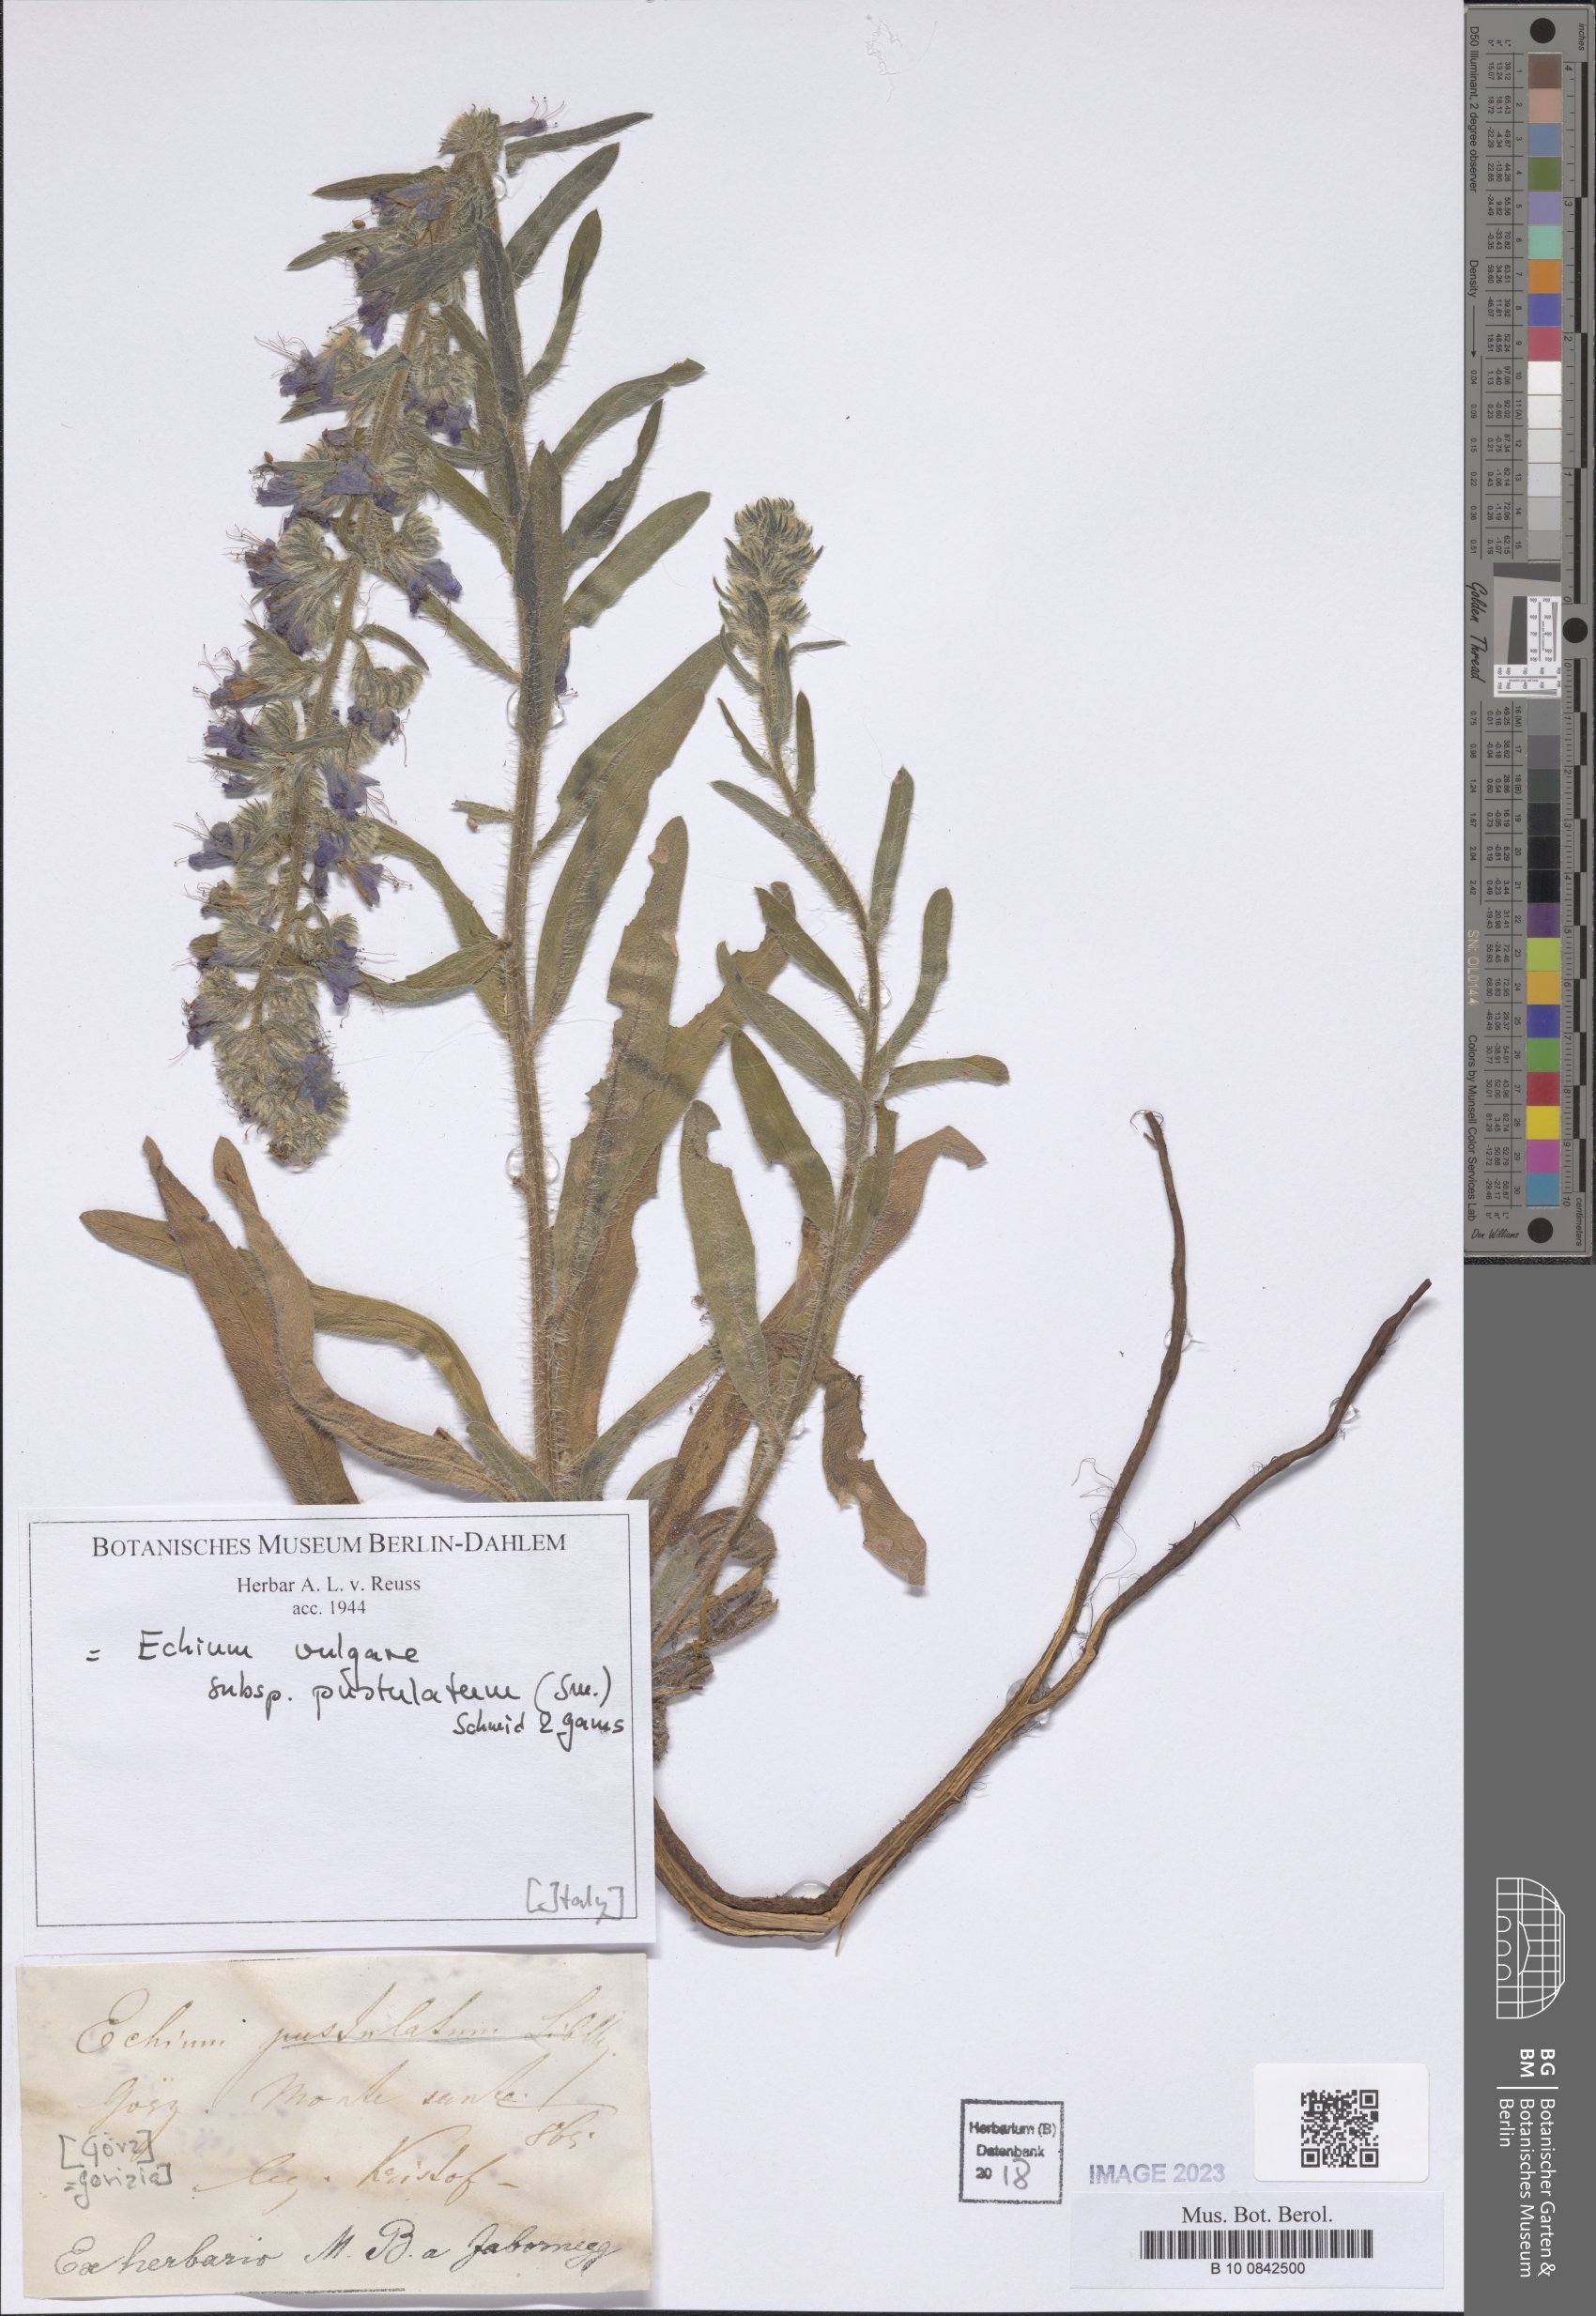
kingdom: Plantae
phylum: Tracheophyta
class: Magnoliopsida
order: Boraginales
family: Boraginaceae
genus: Echium
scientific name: Echium vulgare
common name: Common viper's bugloss
